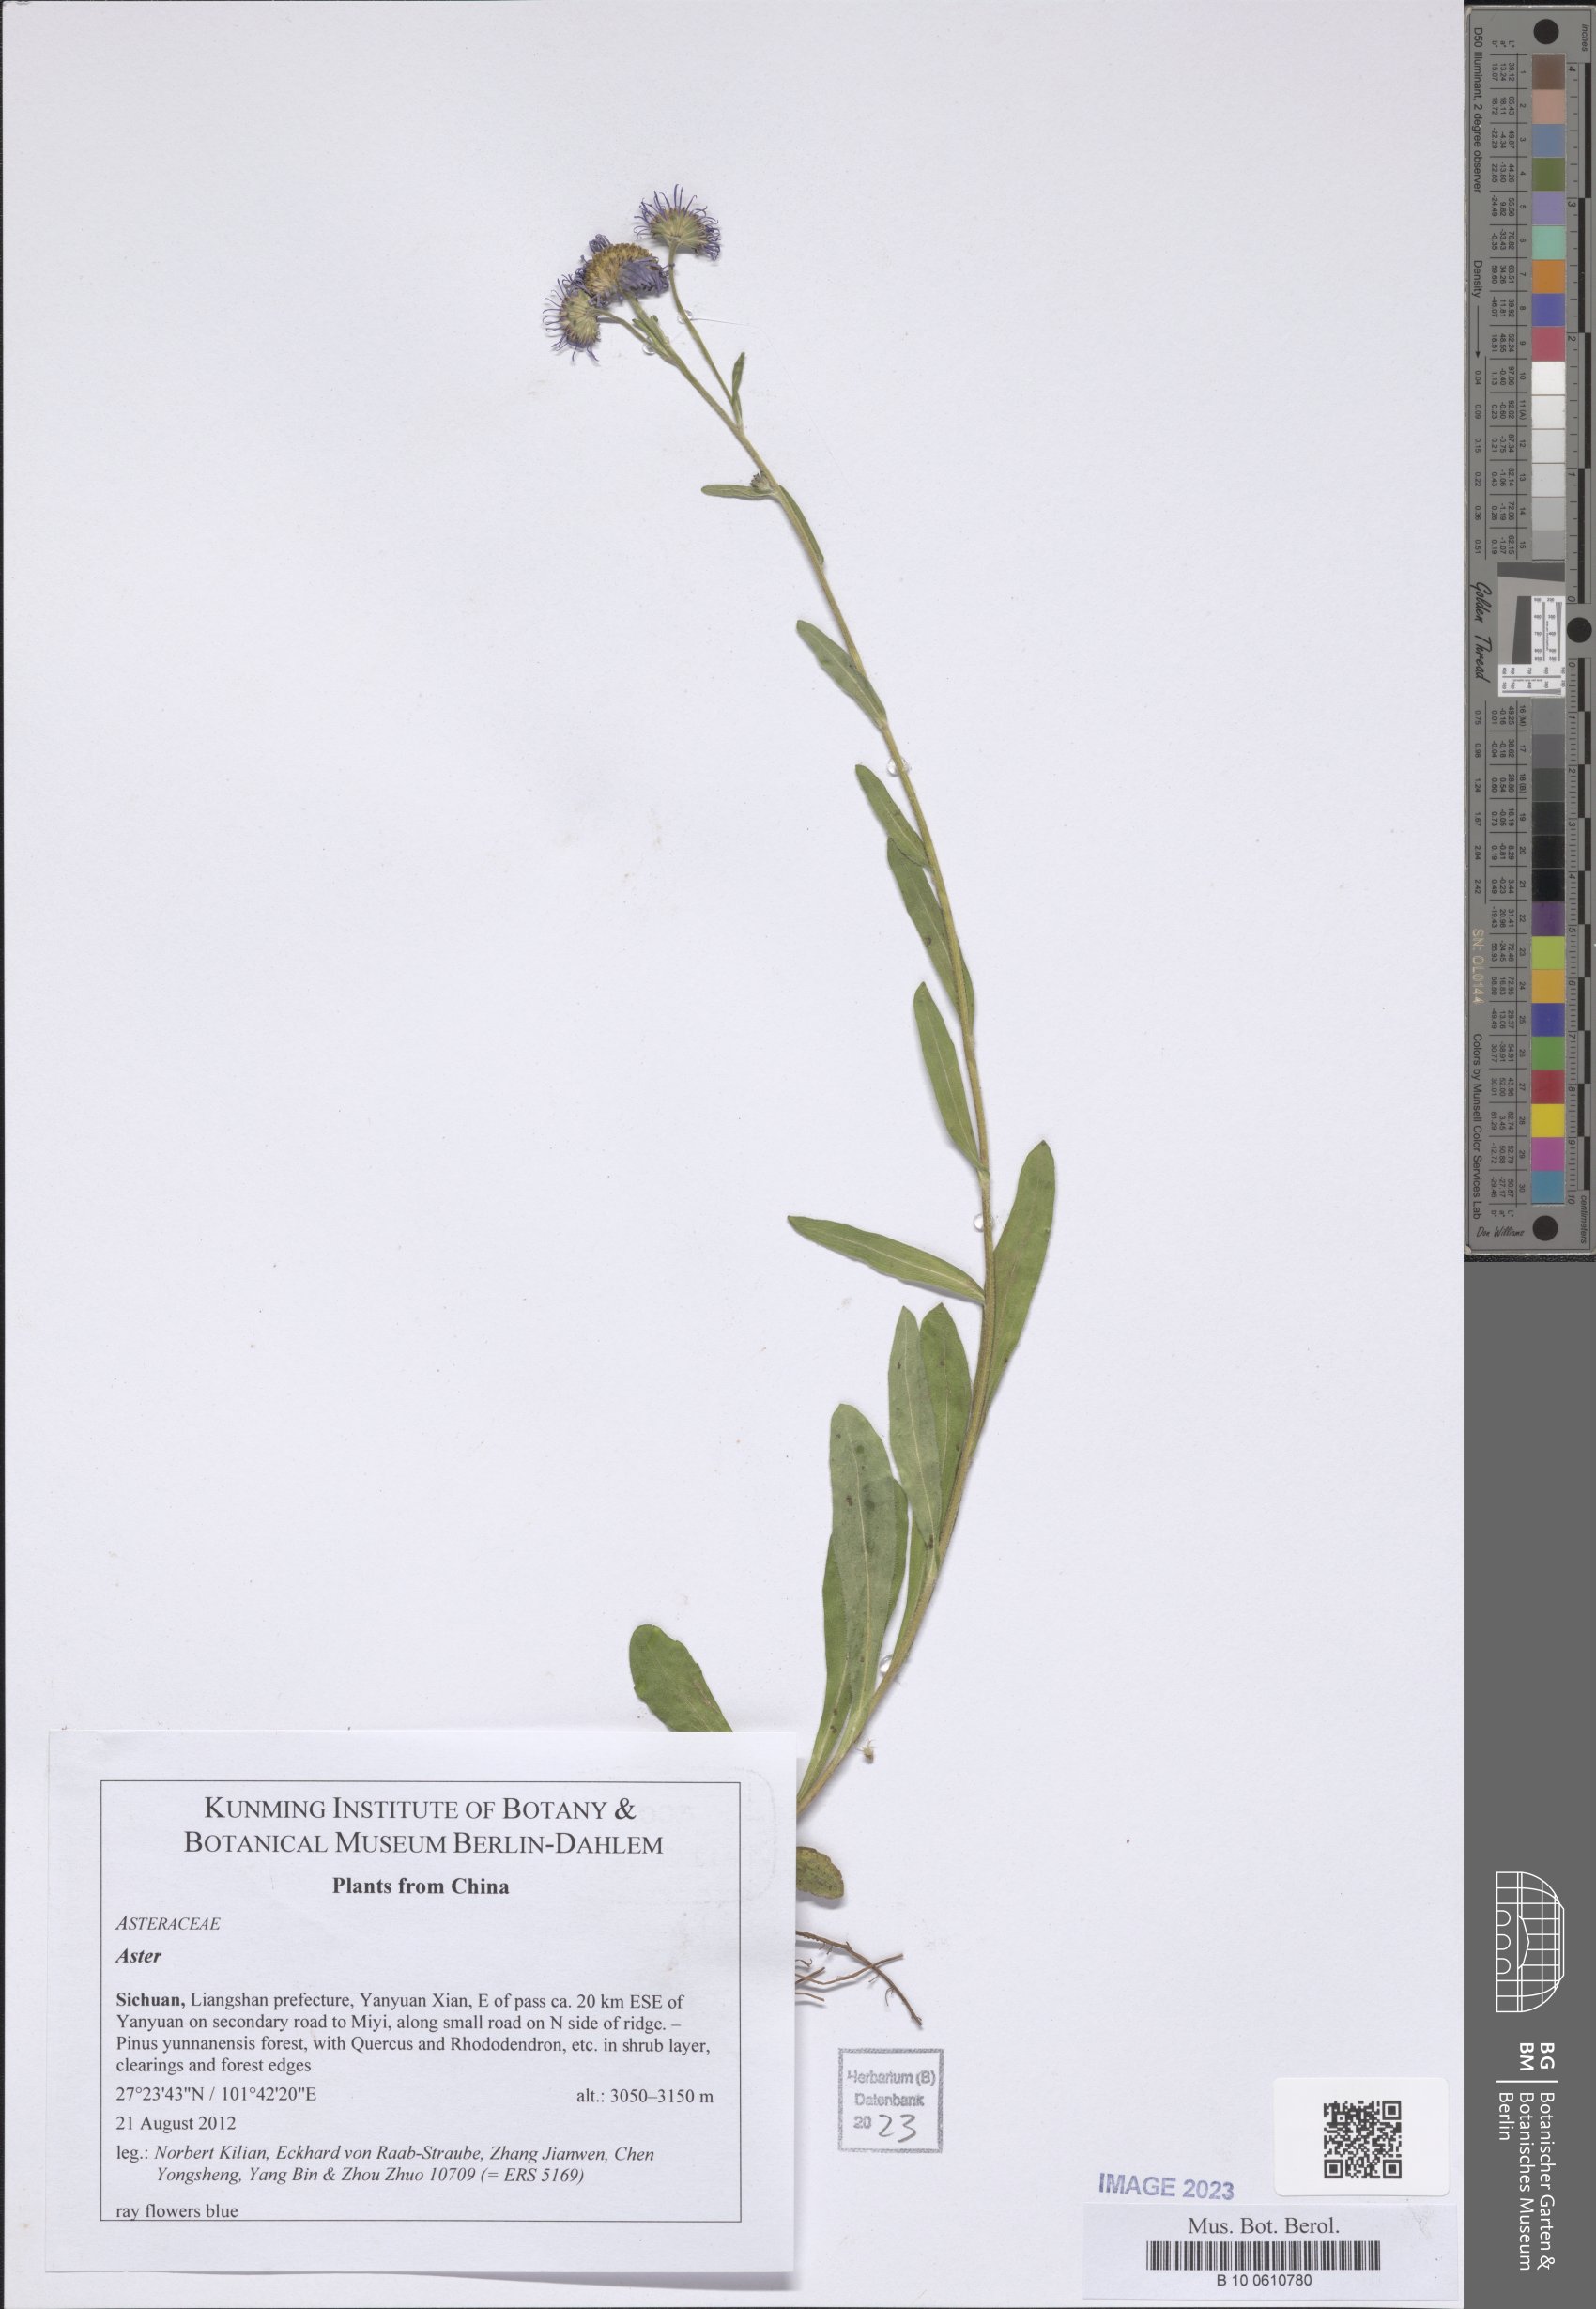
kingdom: Plantae
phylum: Tracheophyta
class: Magnoliopsida
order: Asterales
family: Asteraceae
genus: Aster
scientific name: Aster
